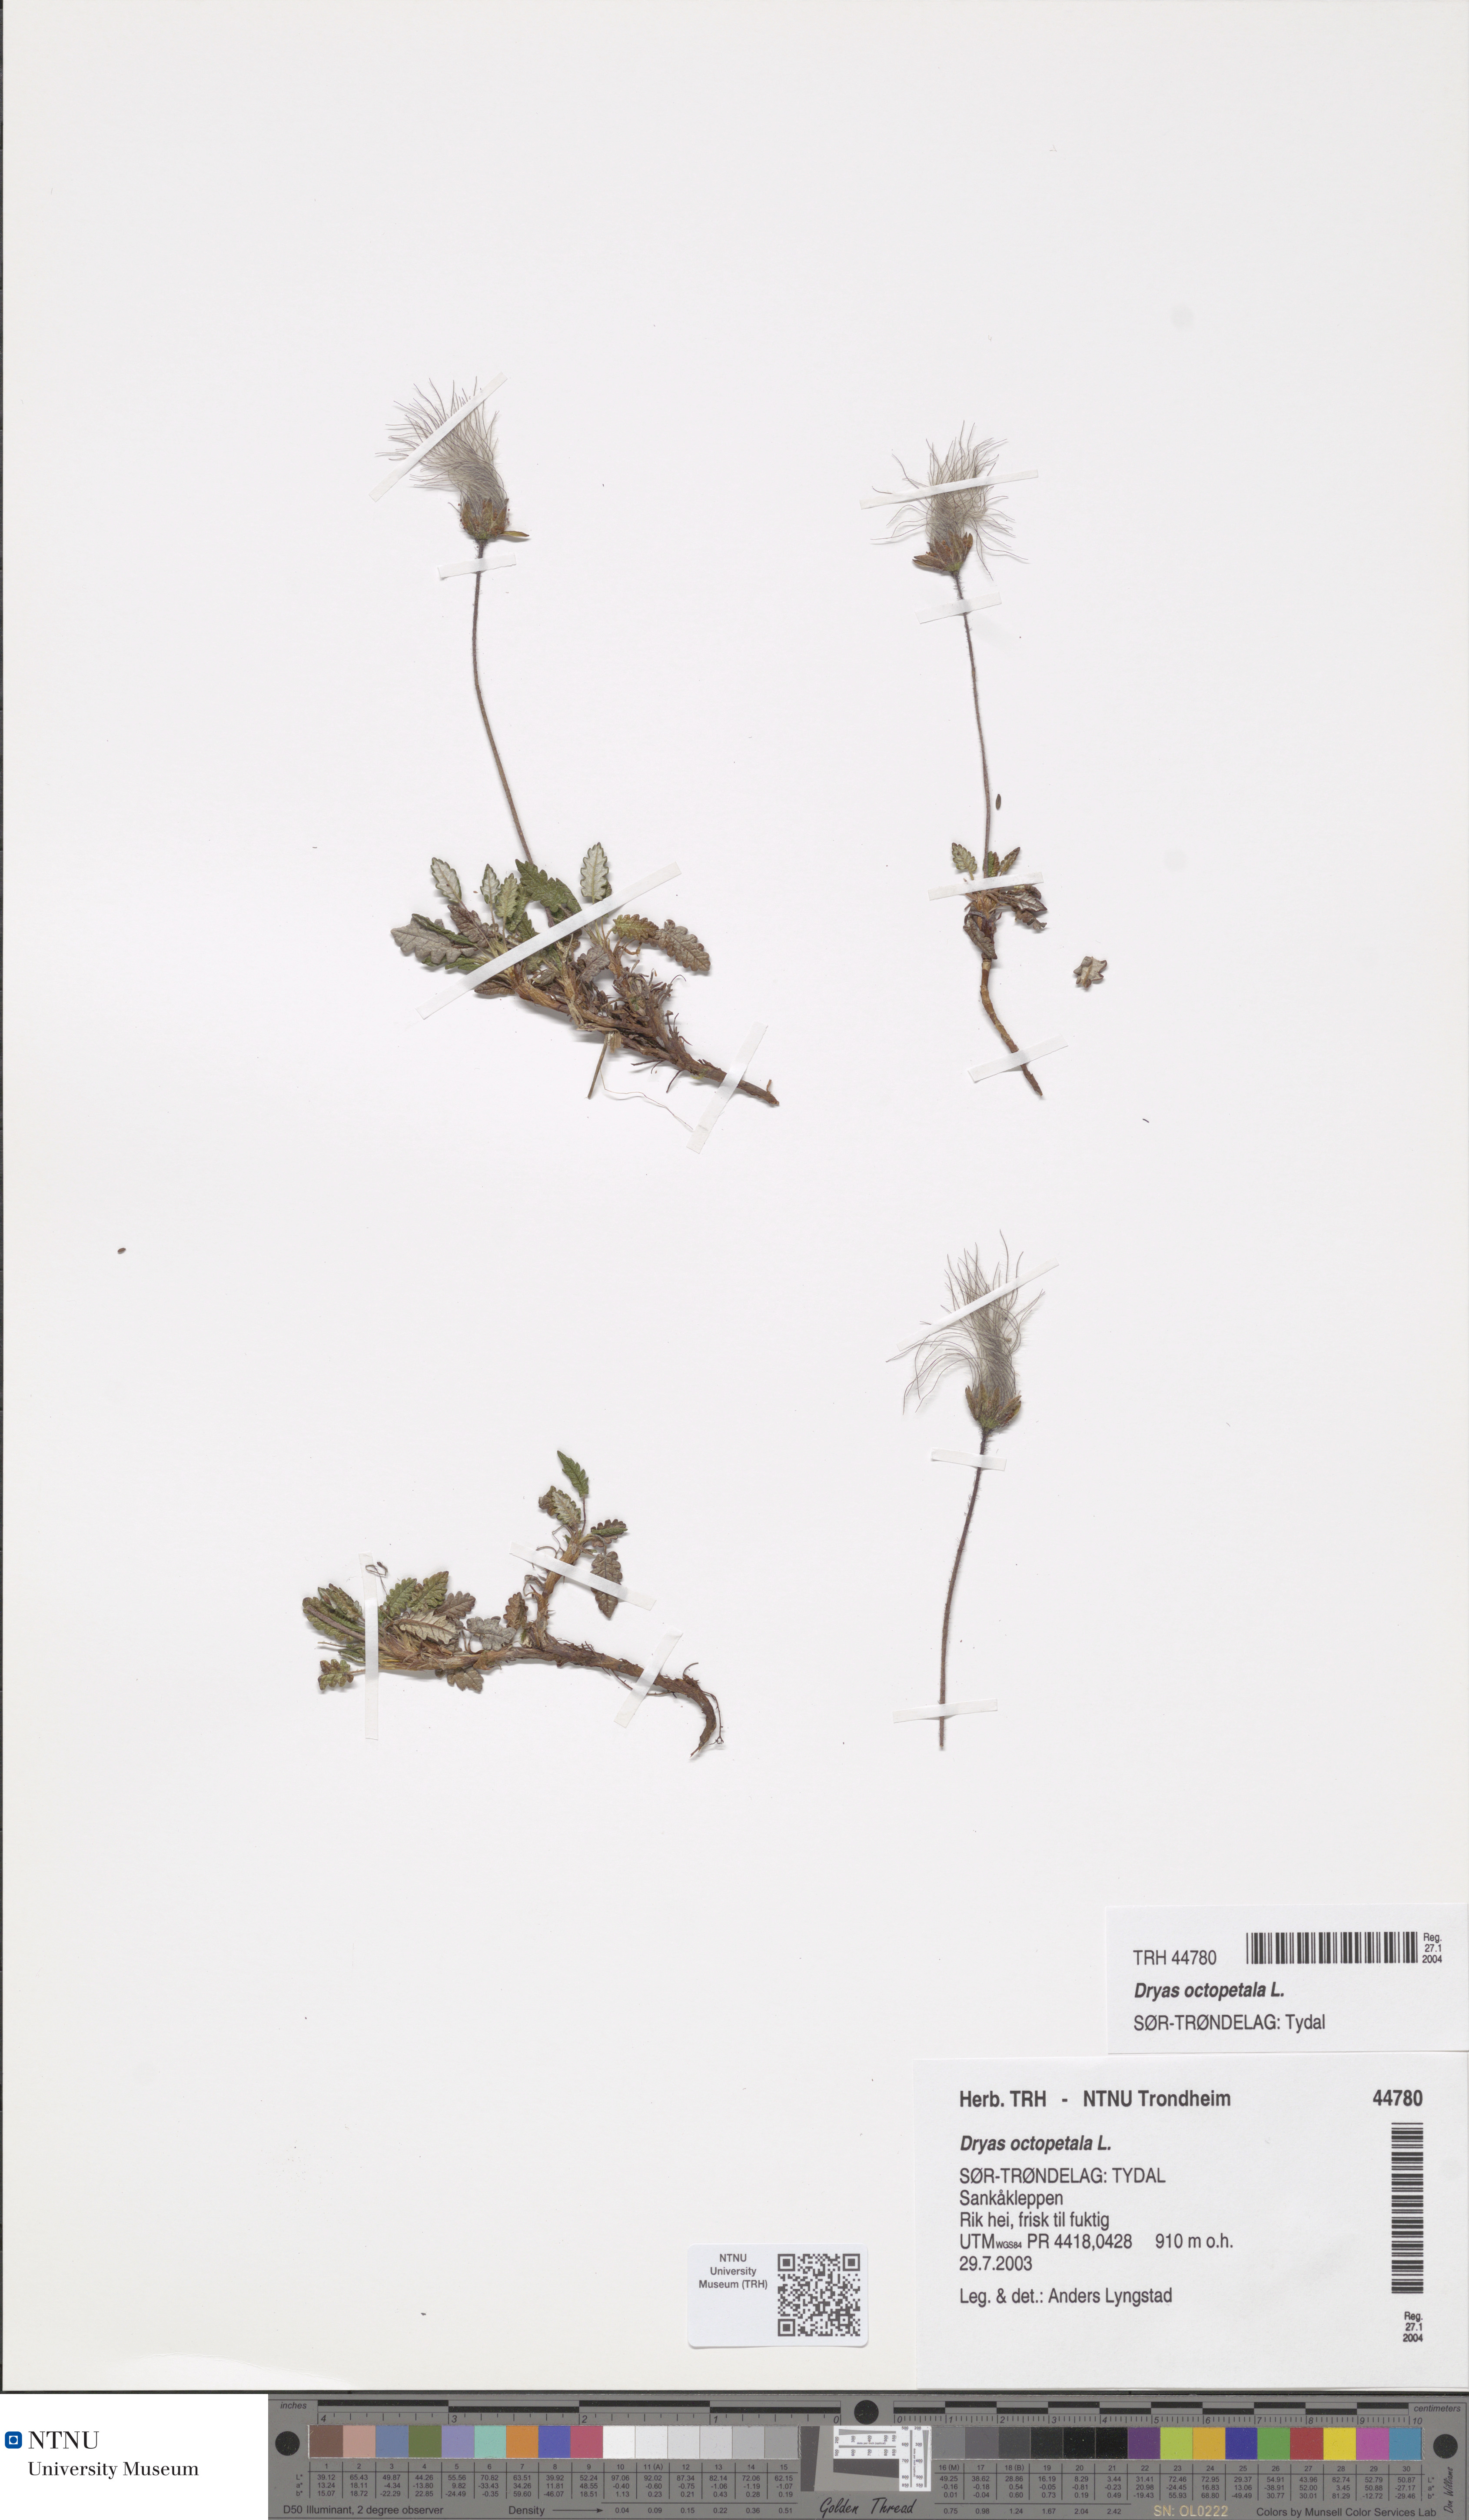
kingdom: Plantae
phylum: Tracheophyta
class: Magnoliopsida
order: Rosales
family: Rosaceae
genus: Dryas
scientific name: Dryas octopetala
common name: Eight-petal mountain-avens
